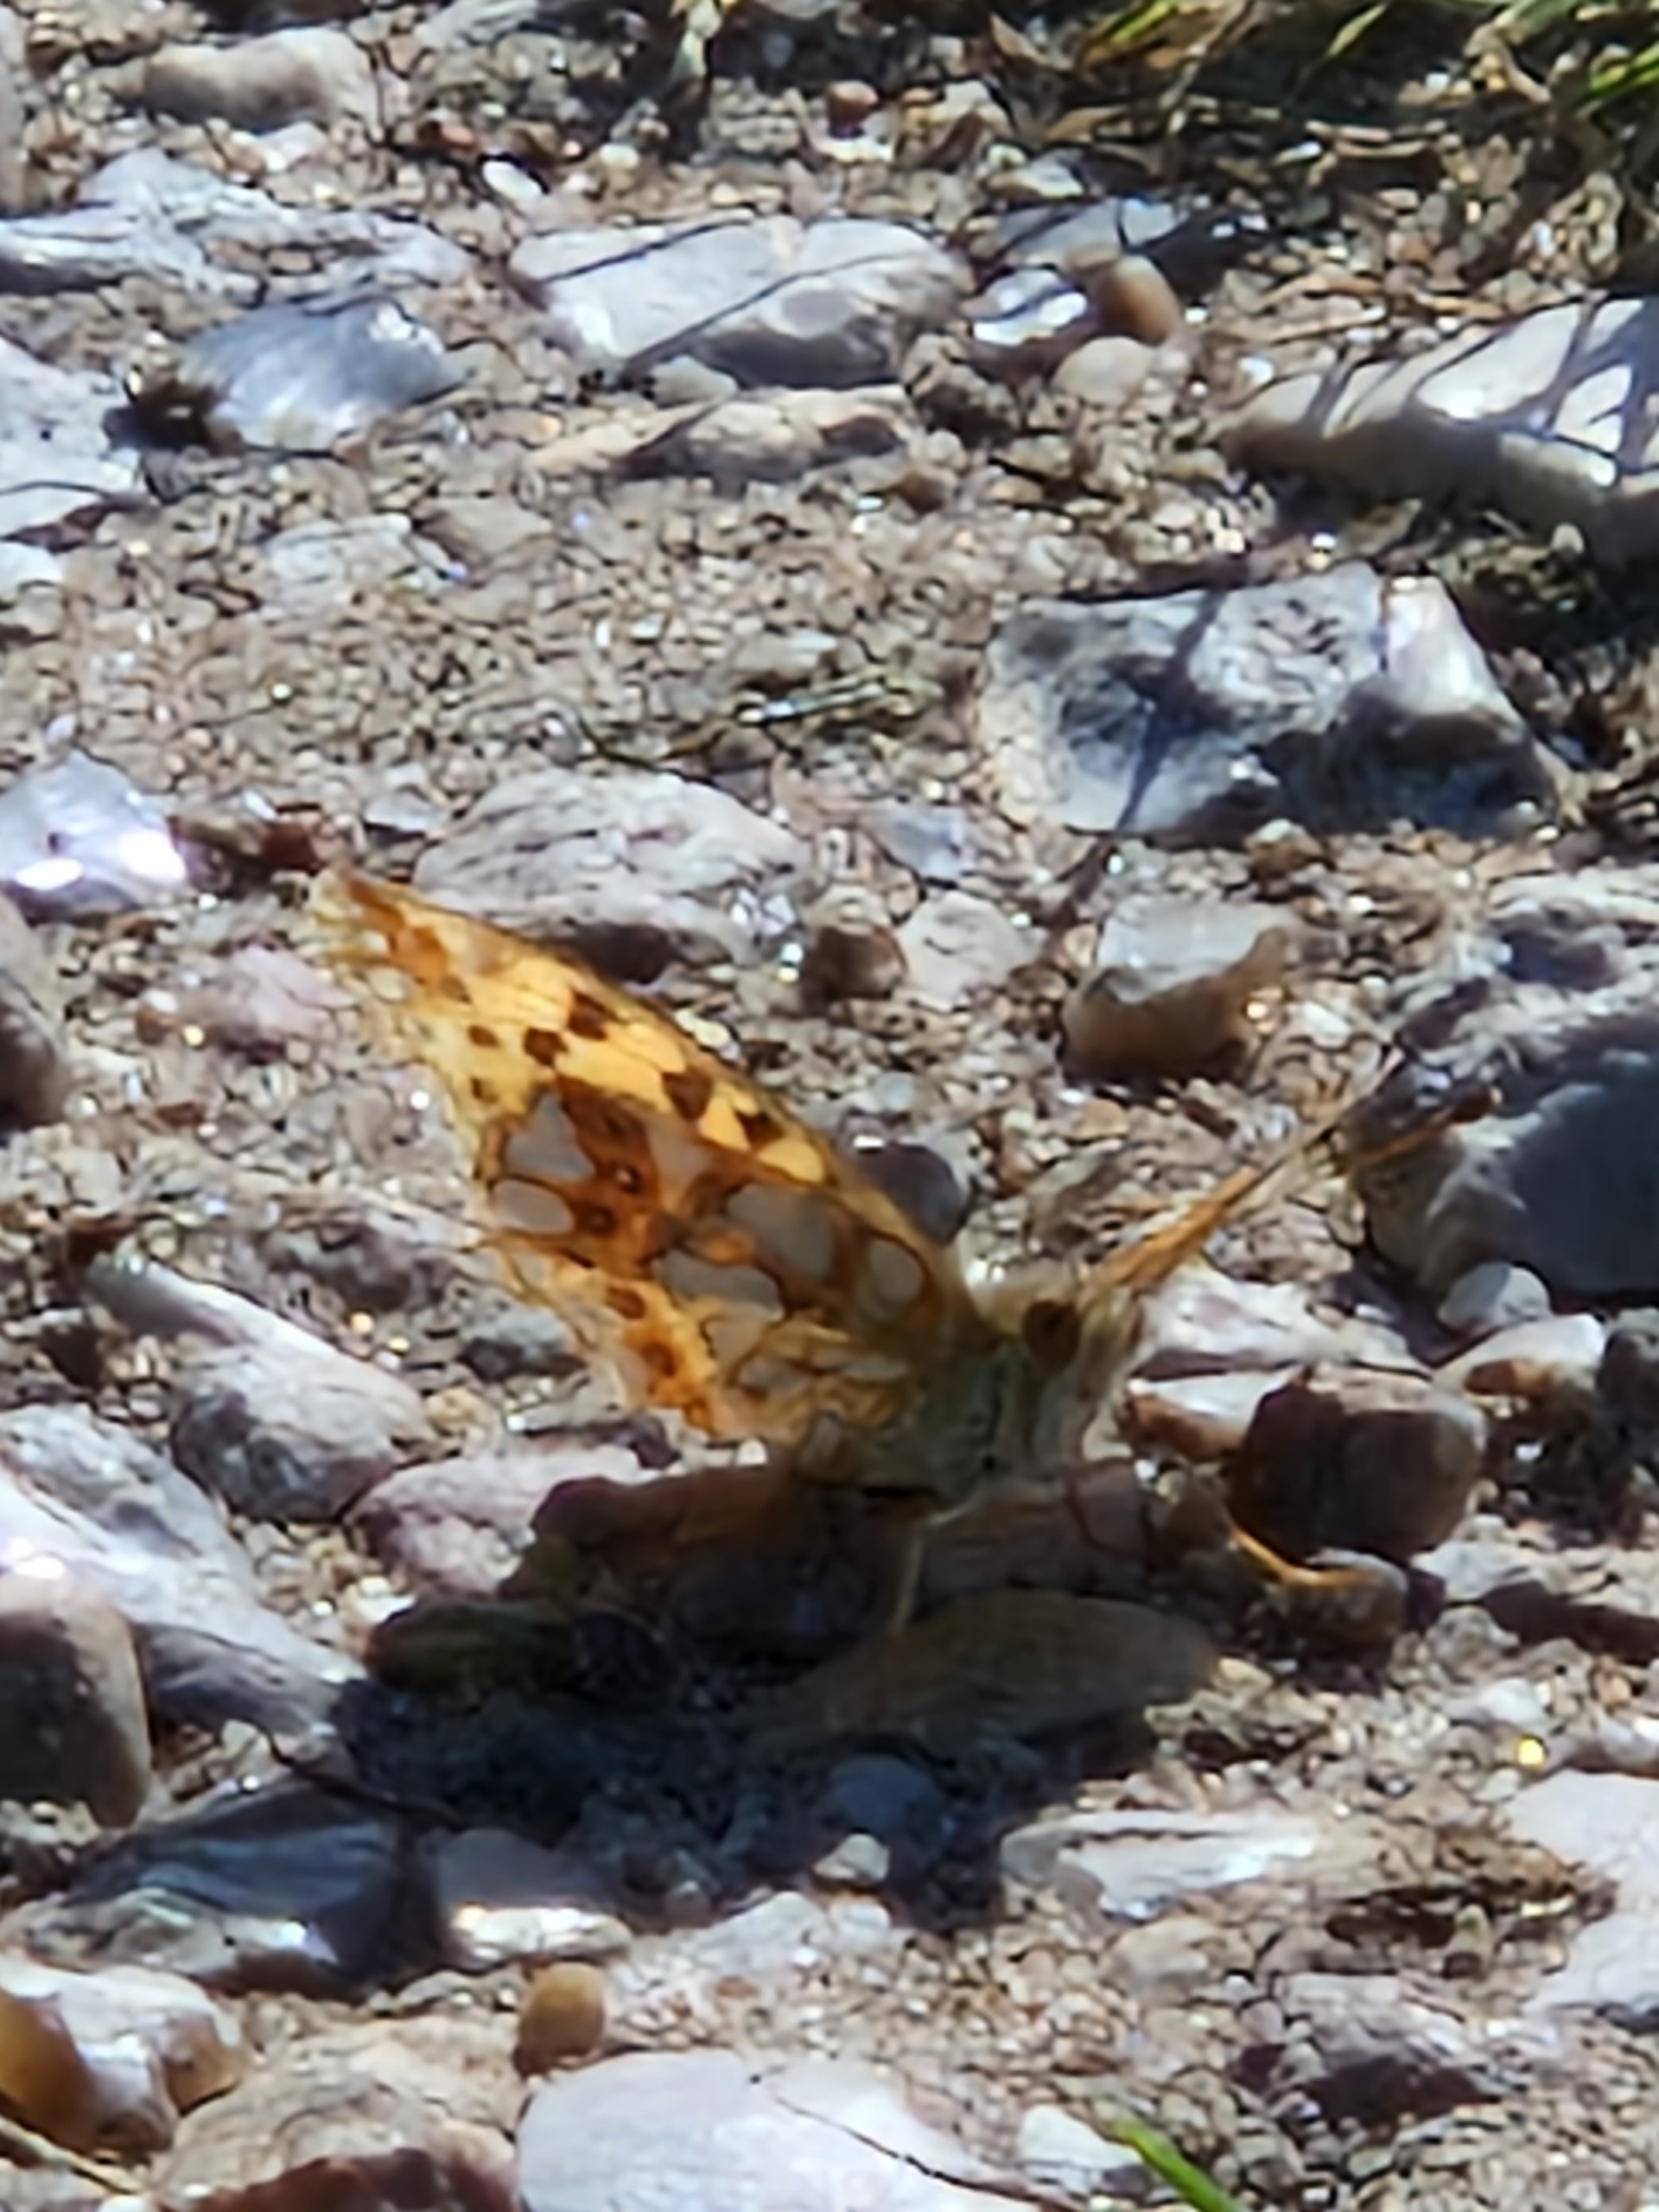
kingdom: Animalia
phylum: Arthropoda
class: Insecta
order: Lepidoptera
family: Nymphalidae
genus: Issoria
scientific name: Issoria lathonia
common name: Storplettet perlemorsommerfugl
